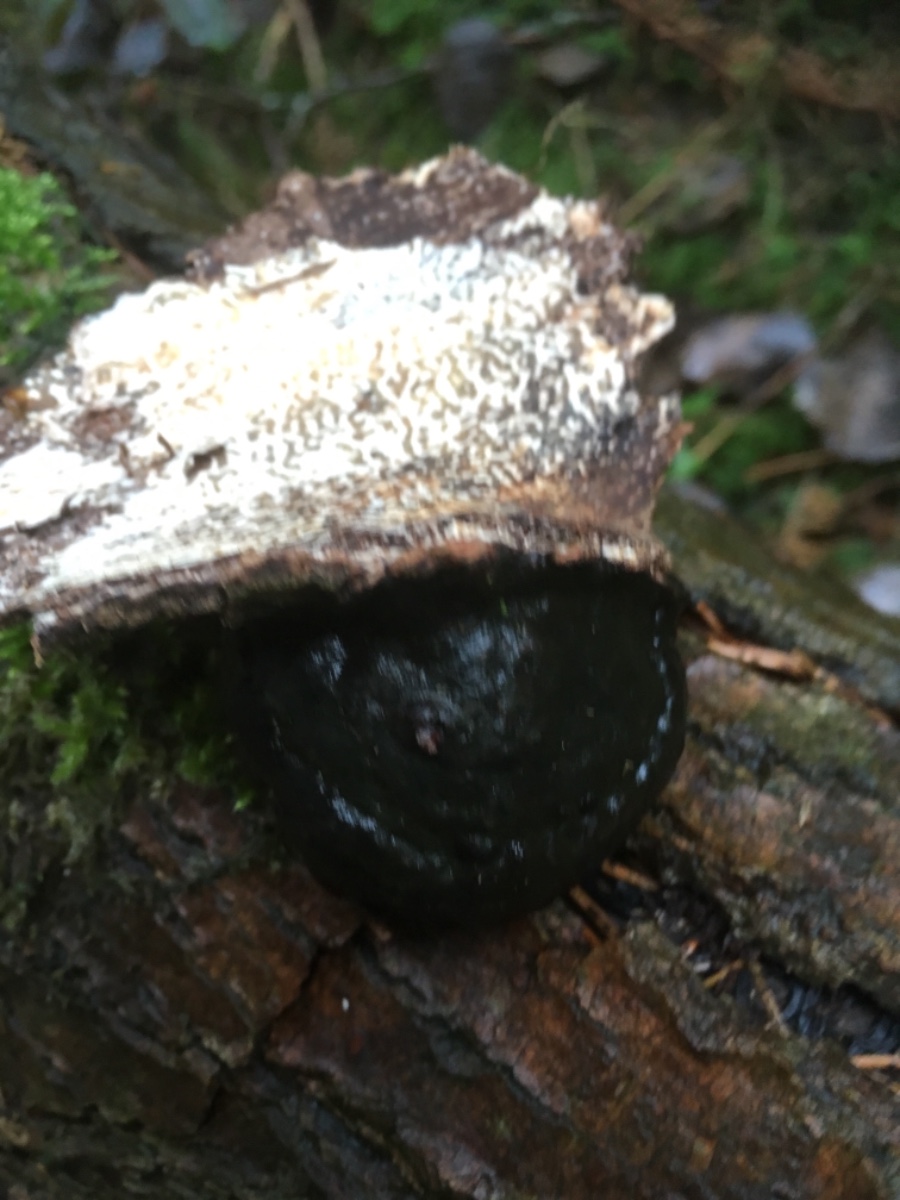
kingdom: Fungi
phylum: Basidiomycota
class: Agaricomycetes
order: Polyporales
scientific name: Polyporales
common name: poresvampordenen
